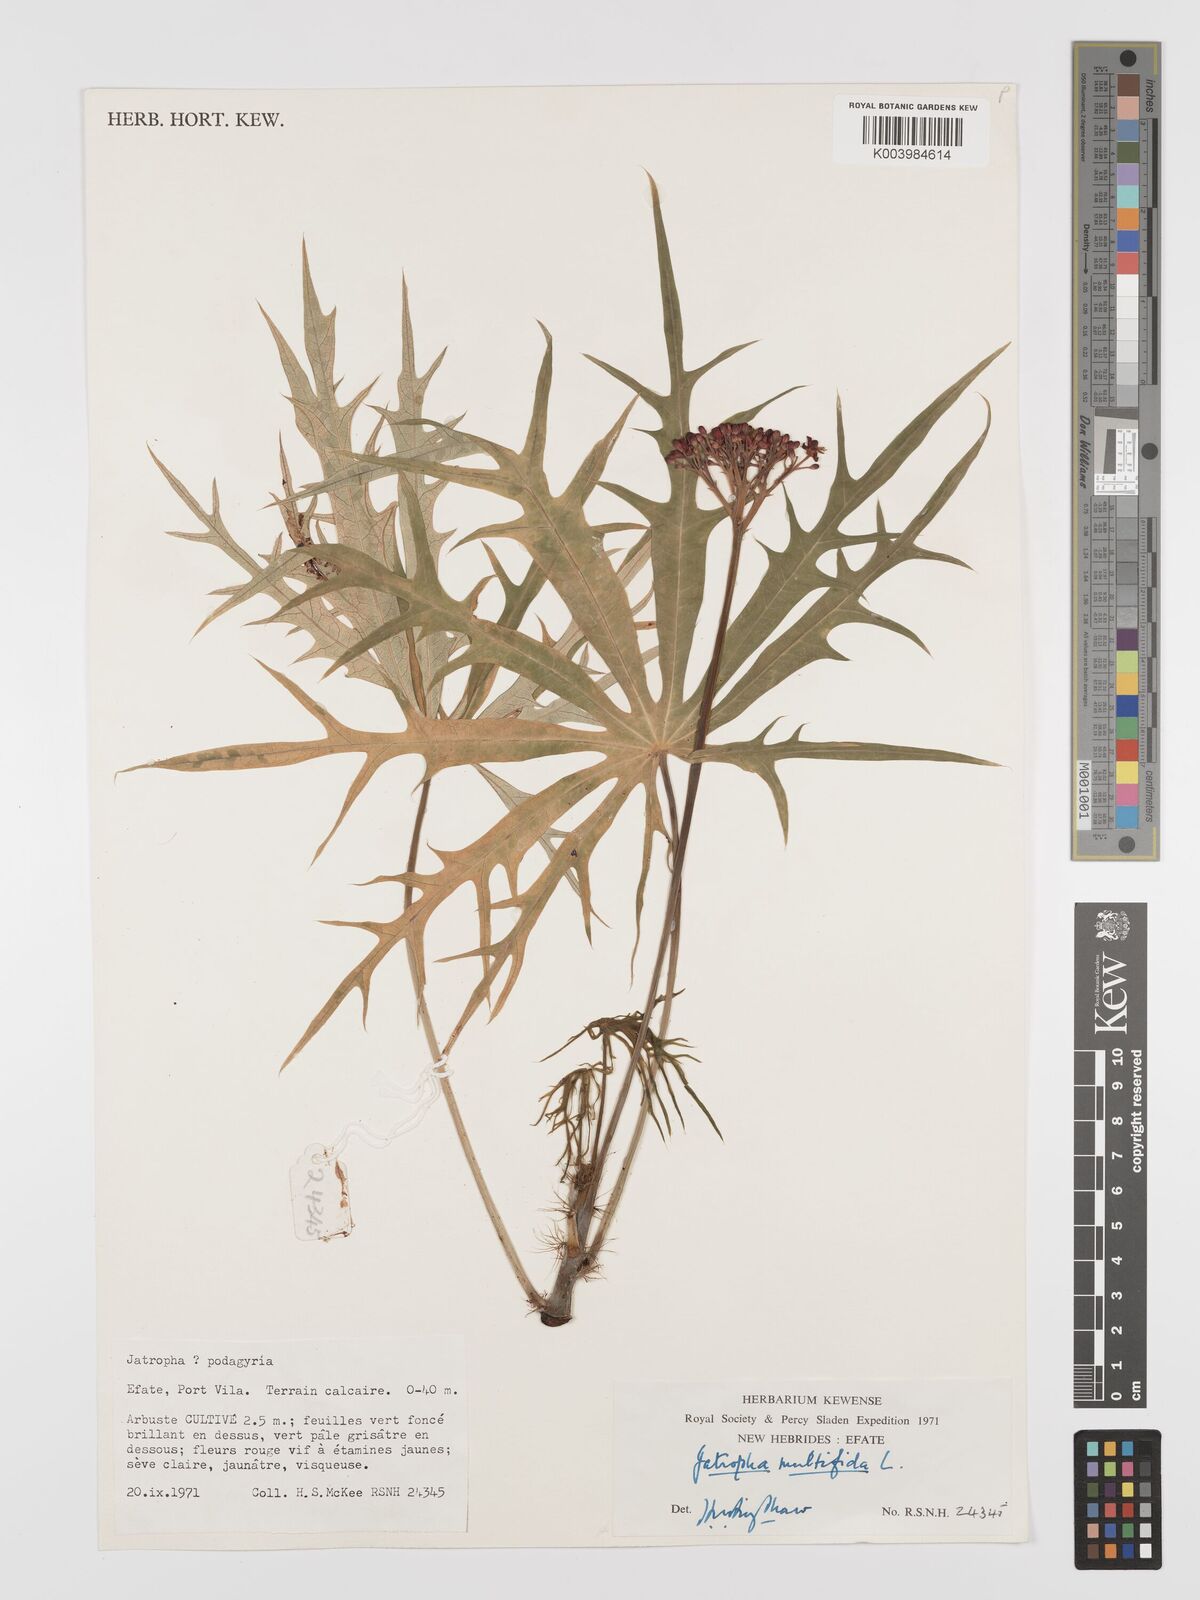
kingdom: Plantae
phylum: Tracheophyta
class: Magnoliopsida
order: Malpighiales
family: Euphorbiaceae
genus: Jatropha
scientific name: Jatropha multifida
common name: Coralbush
